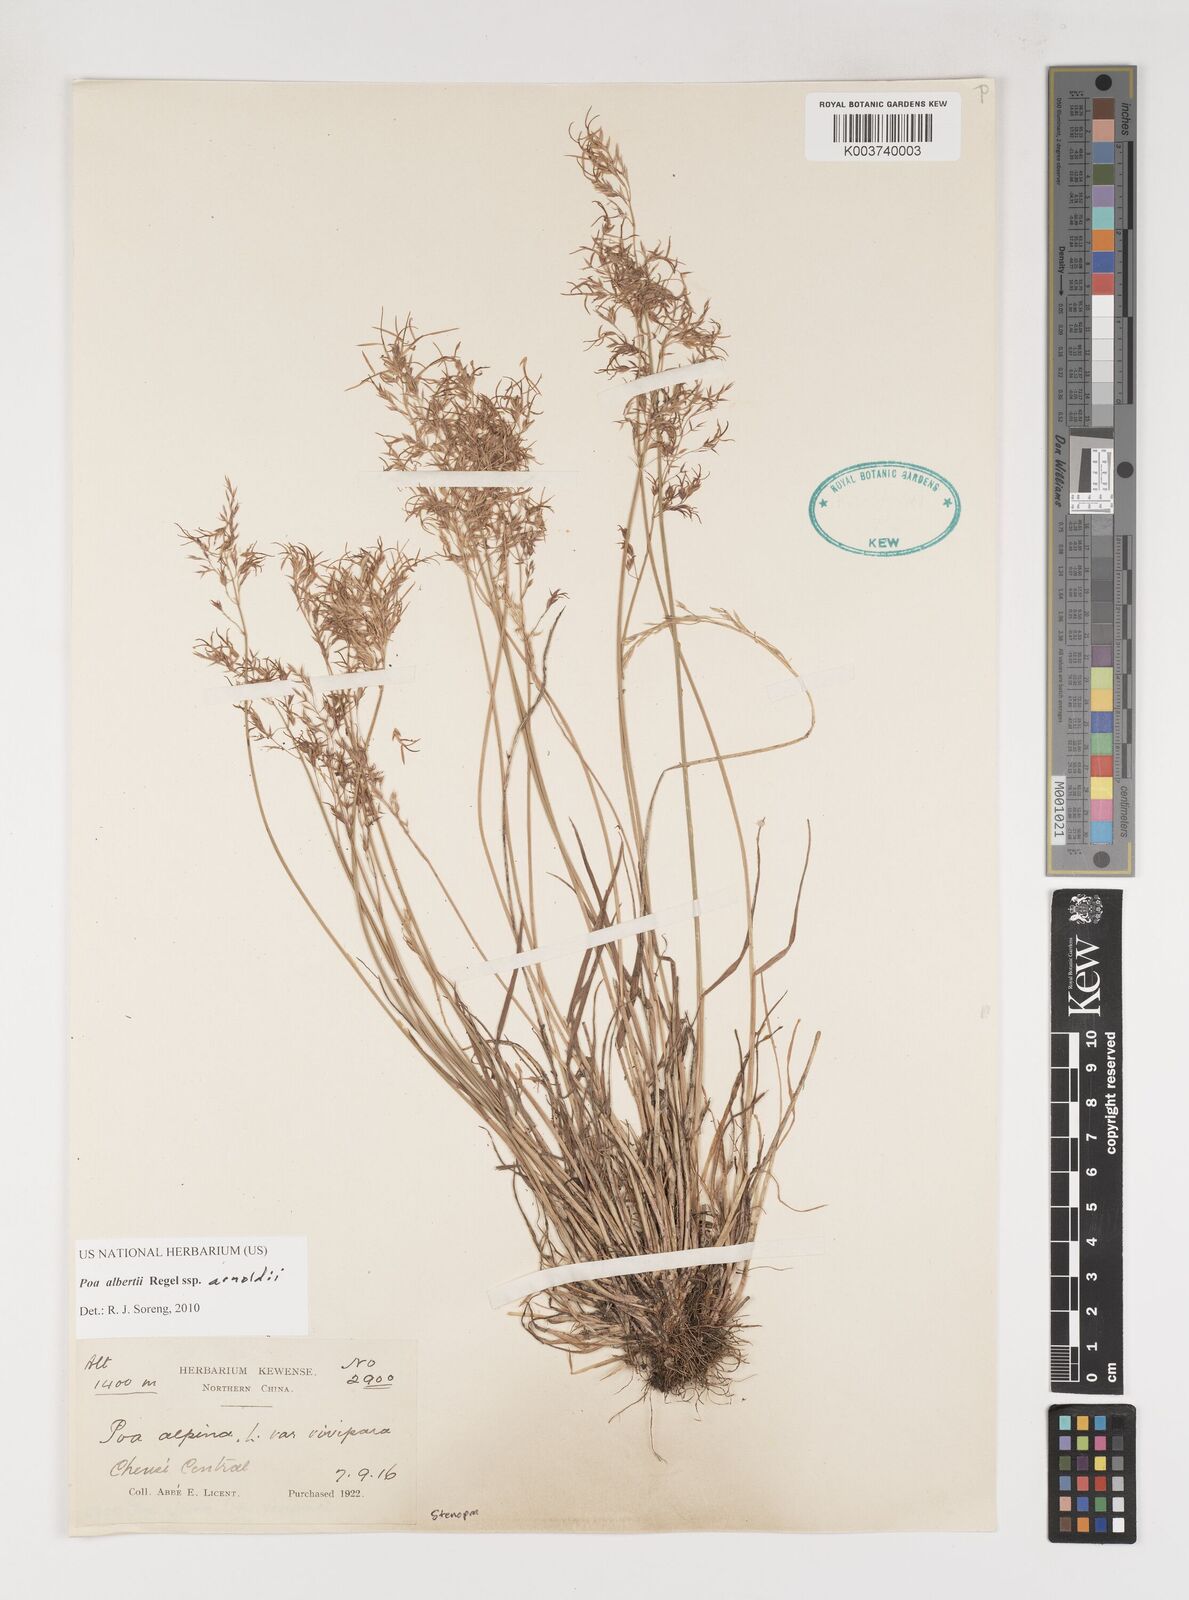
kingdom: Plantae
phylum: Tracheophyta
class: Liliopsida
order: Poales
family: Poaceae
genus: Poa
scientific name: Poa alberti
